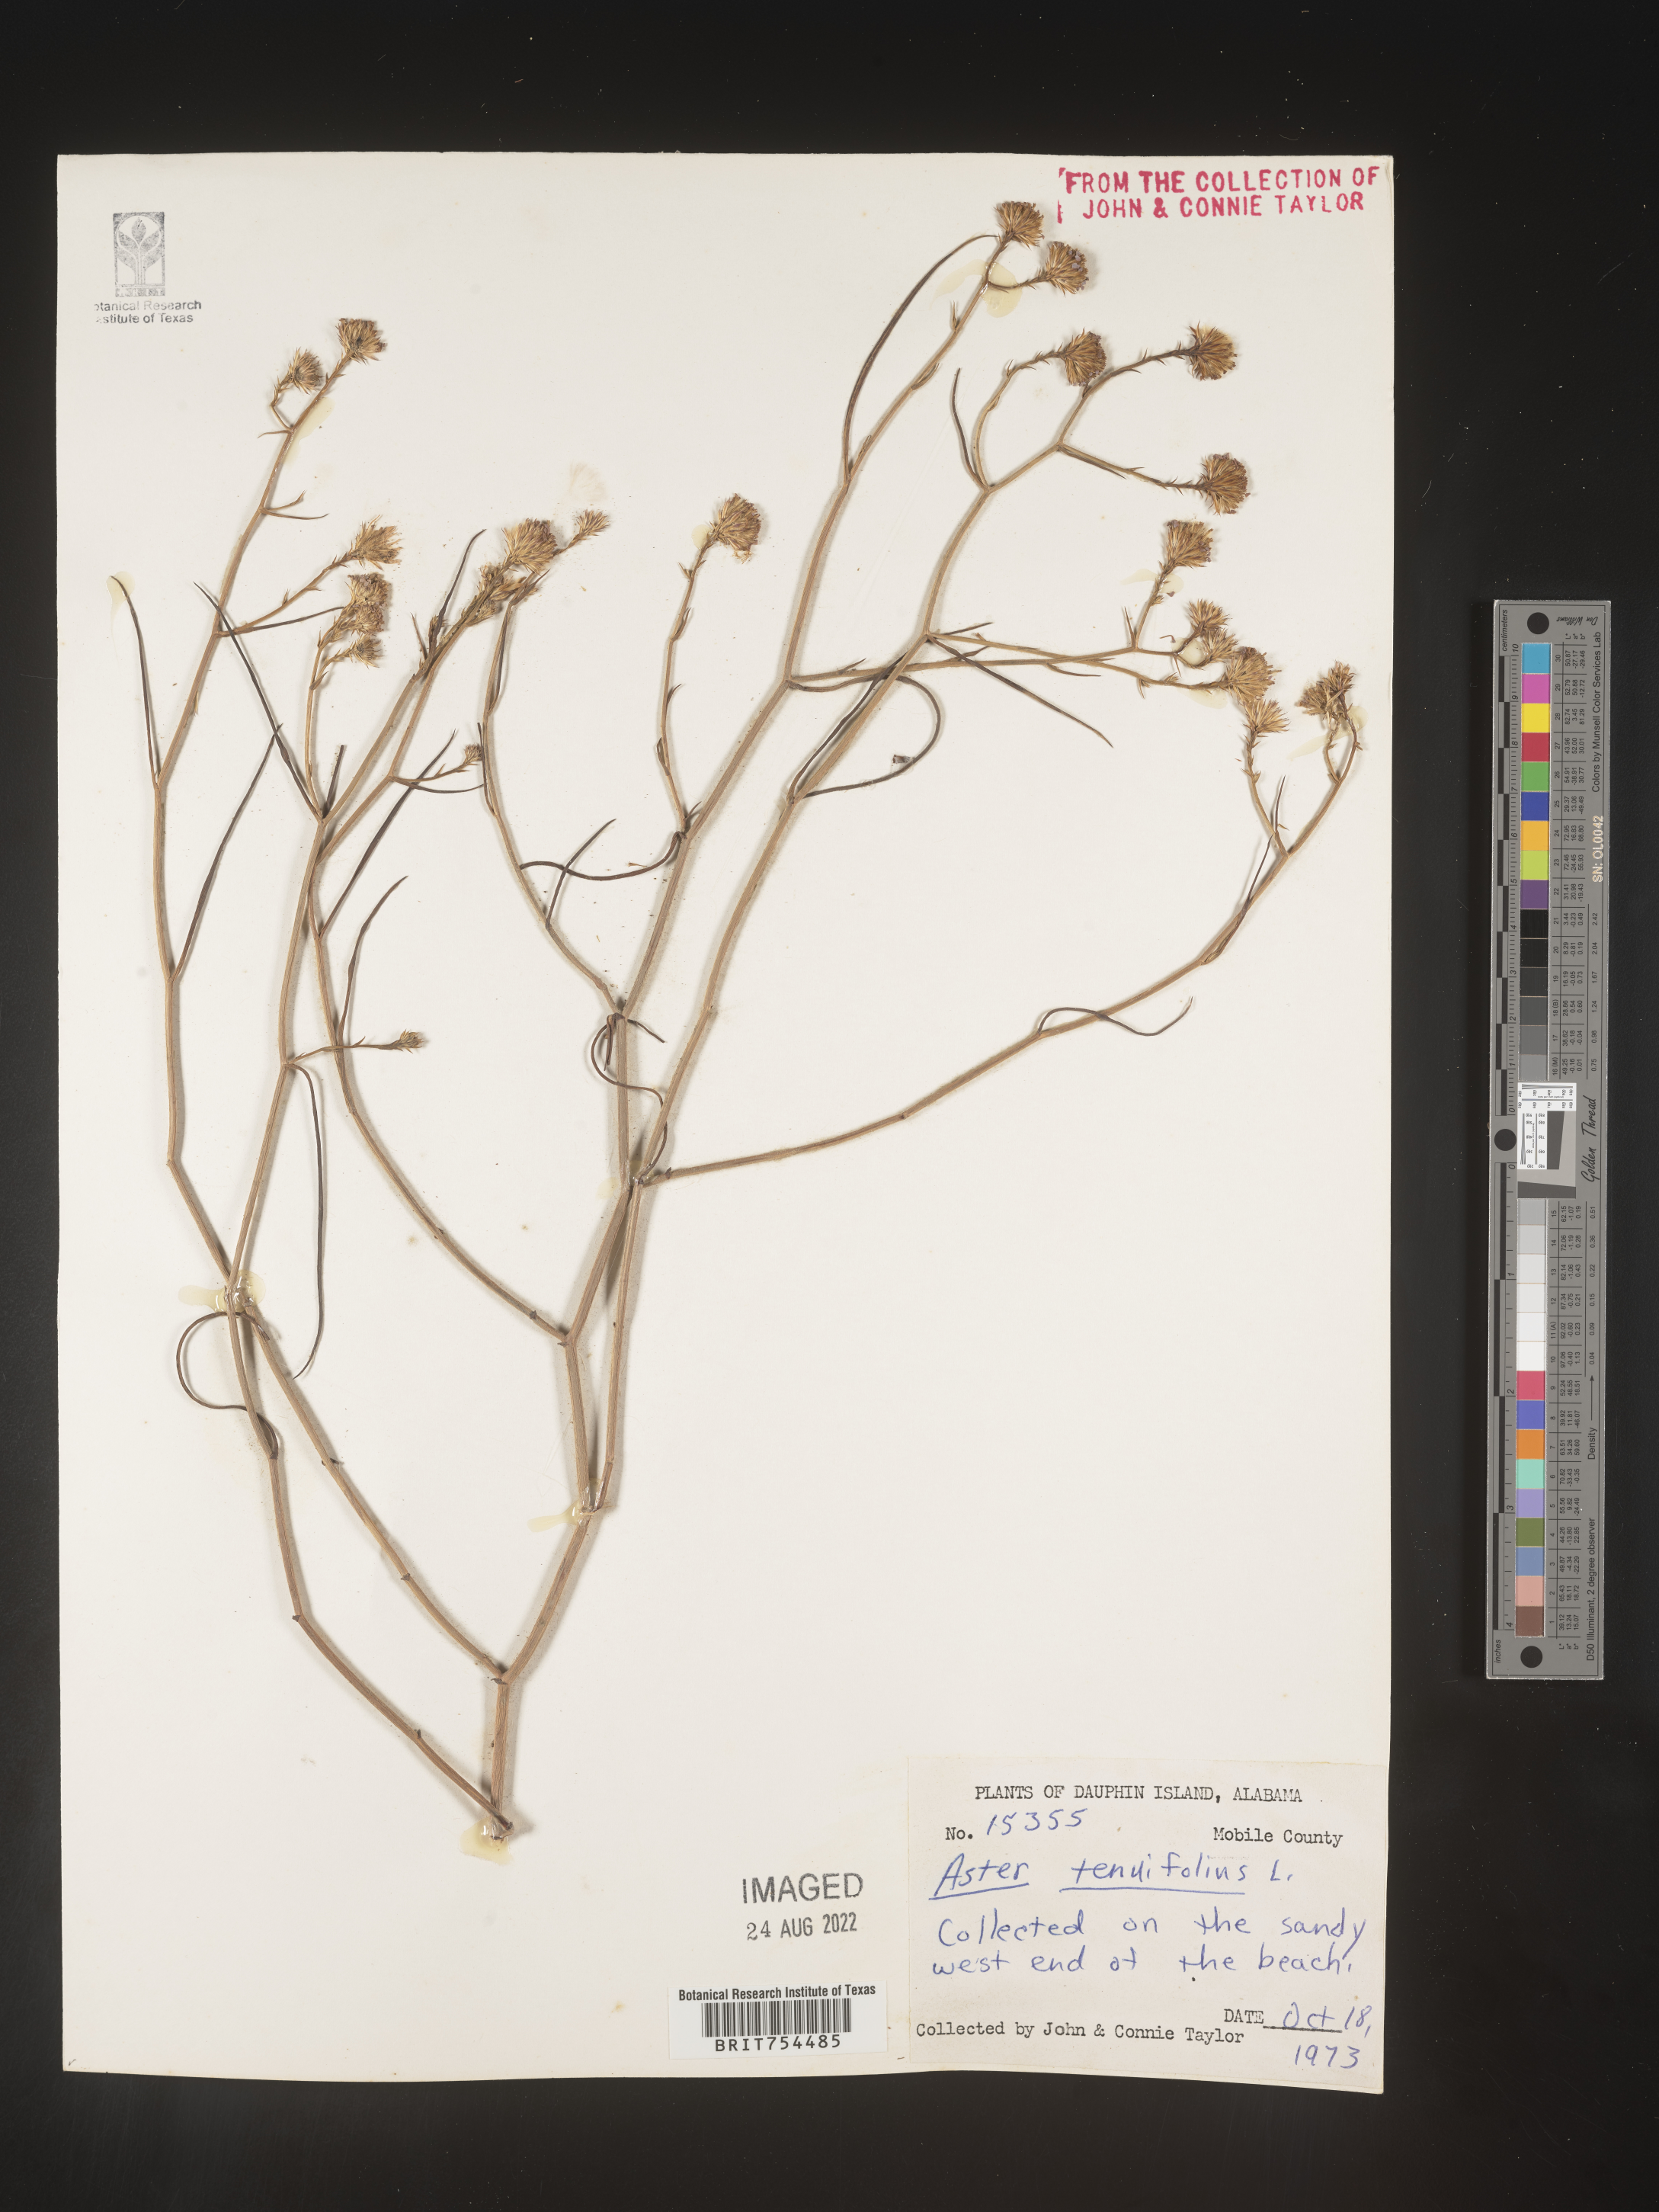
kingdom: Plantae
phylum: Tracheophyta
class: Magnoliopsida
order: Asterales
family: Asteraceae
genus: Symphyotrichum
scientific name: Symphyotrichum tenuifolium
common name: Perennial salt-marsh aster
